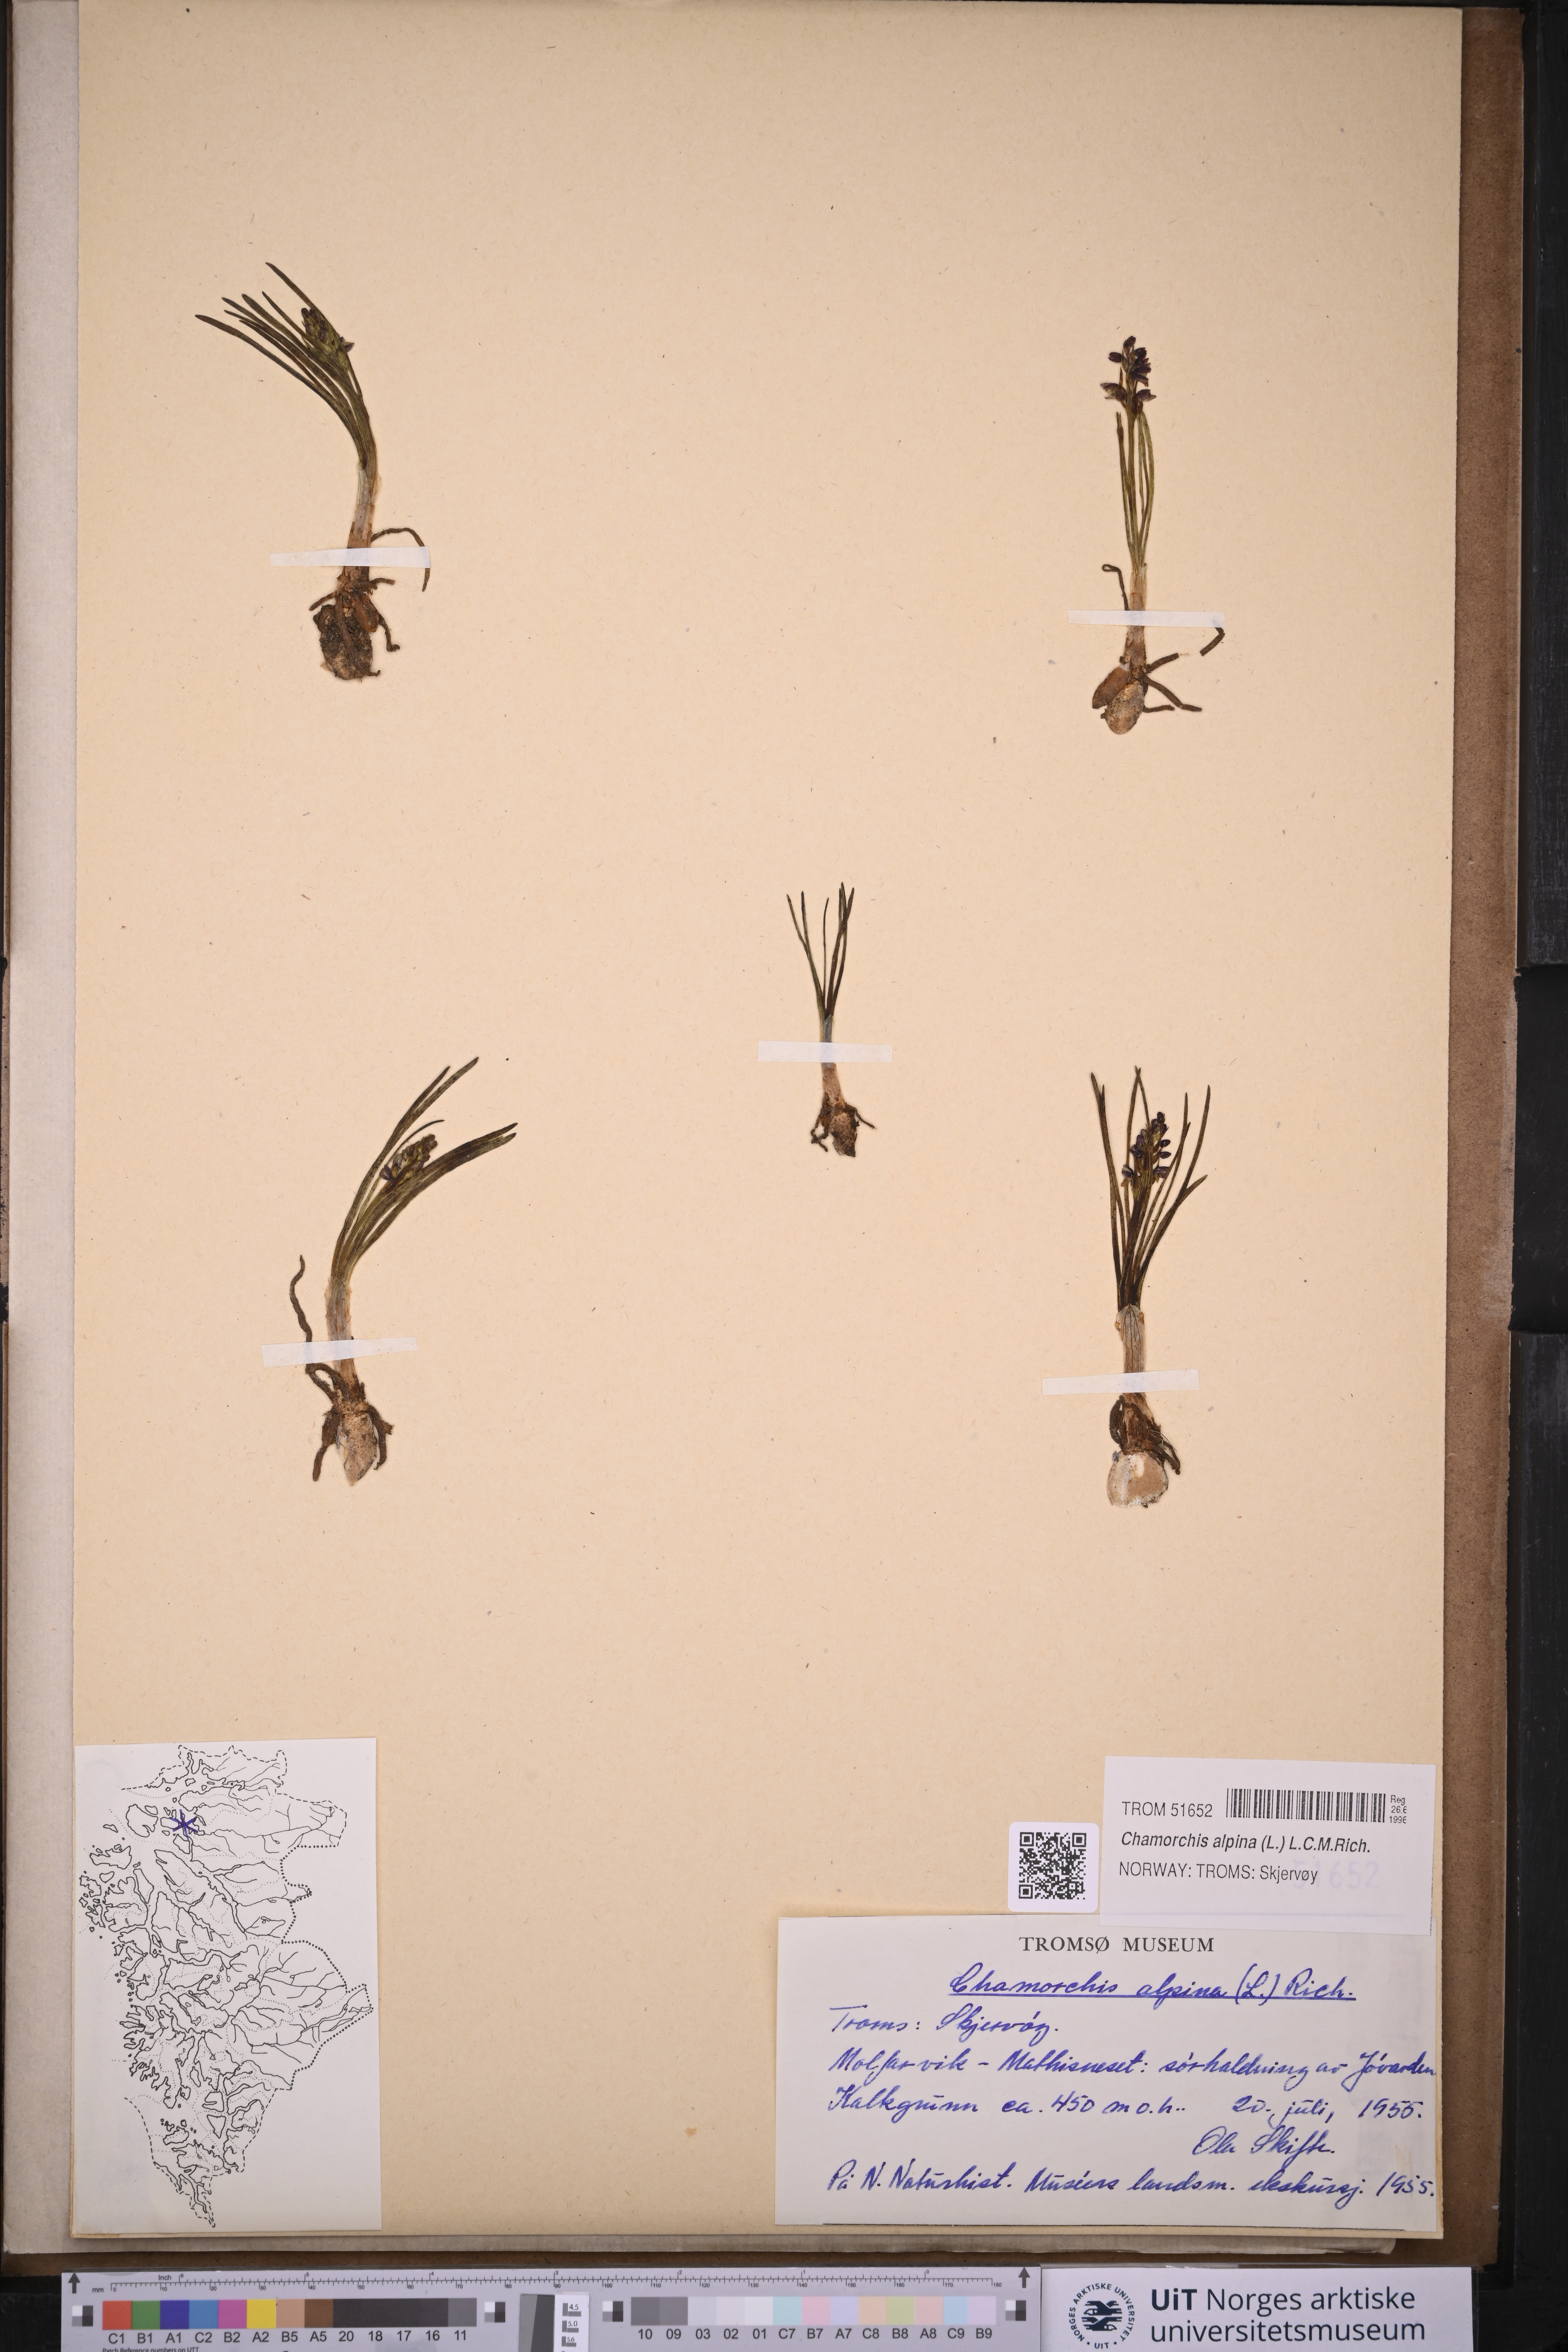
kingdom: Plantae
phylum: Tracheophyta
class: Liliopsida
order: Asparagales
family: Orchidaceae
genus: Chamorchis
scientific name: Chamorchis alpina
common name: Alpine chamorchis
